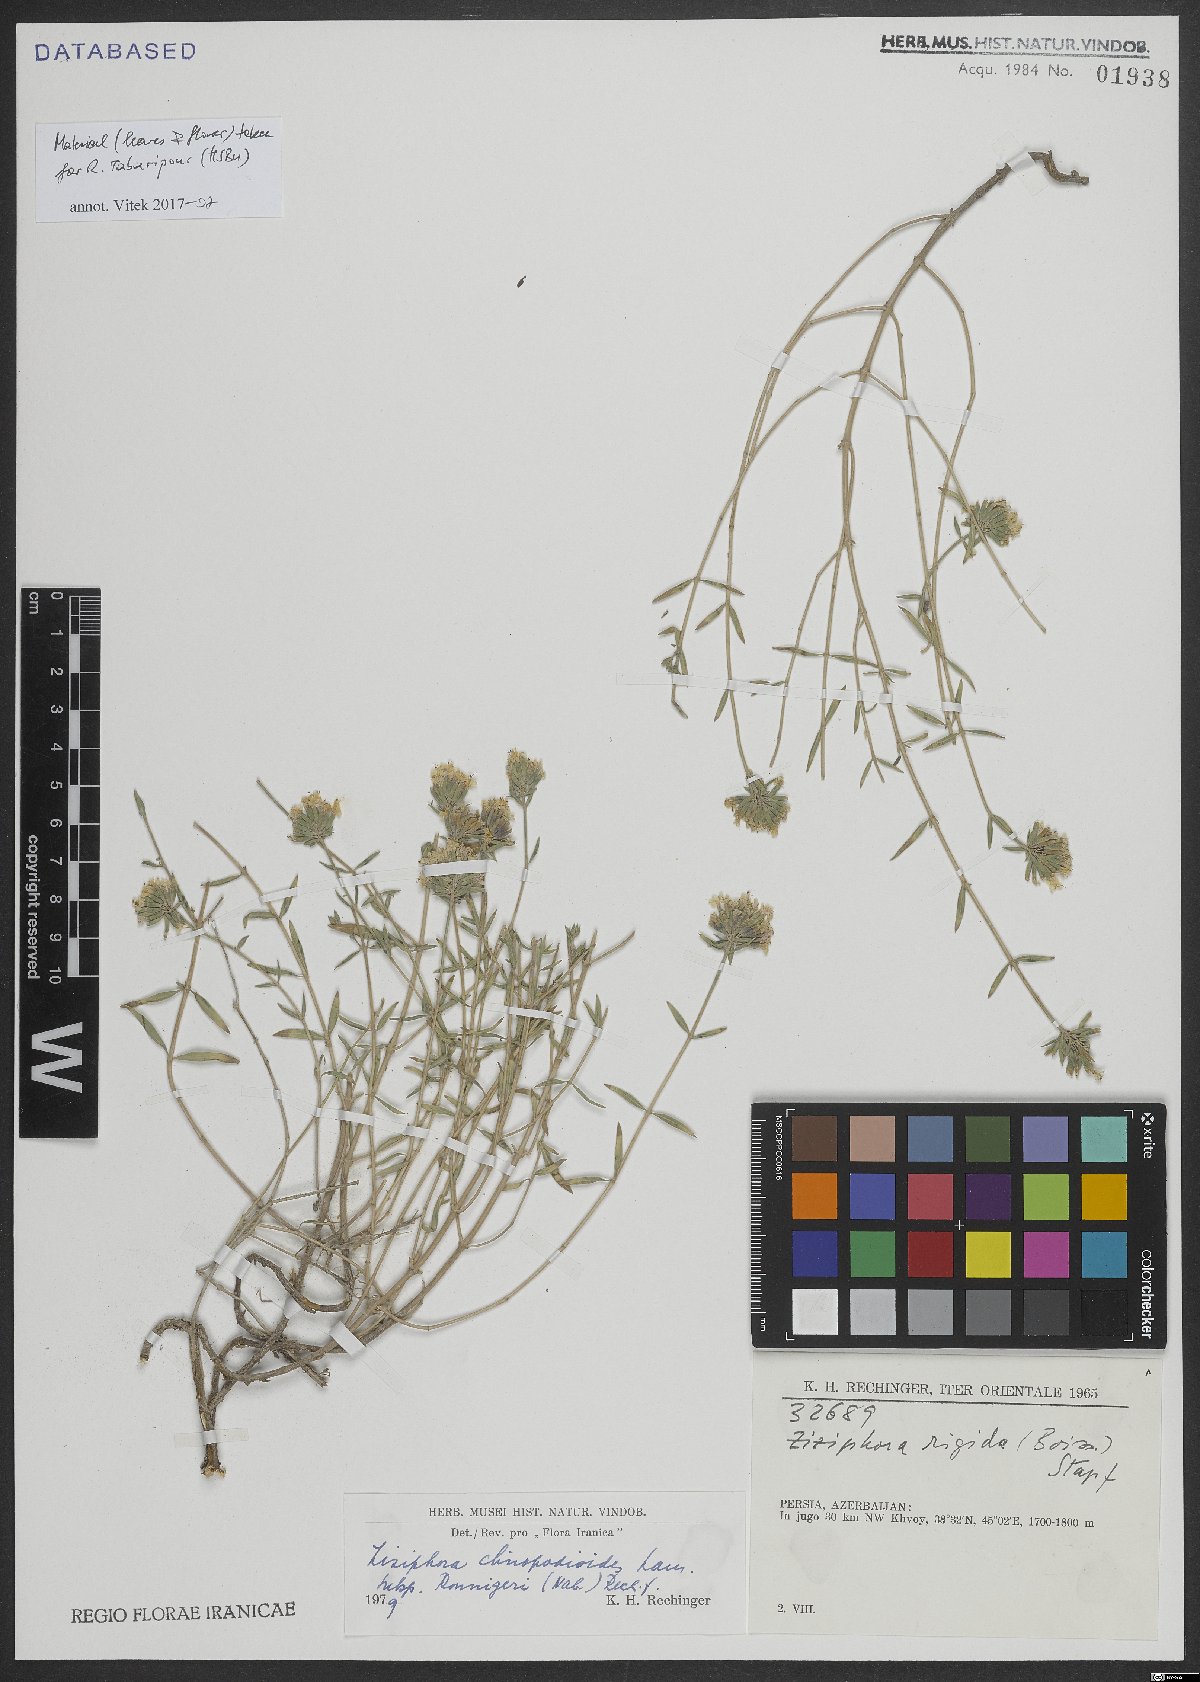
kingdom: Plantae
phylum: Tracheophyta
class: Magnoliopsida
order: Lamiales
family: Lamiaceae
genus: Ziziphora
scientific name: Ziziphora clinopodioides
